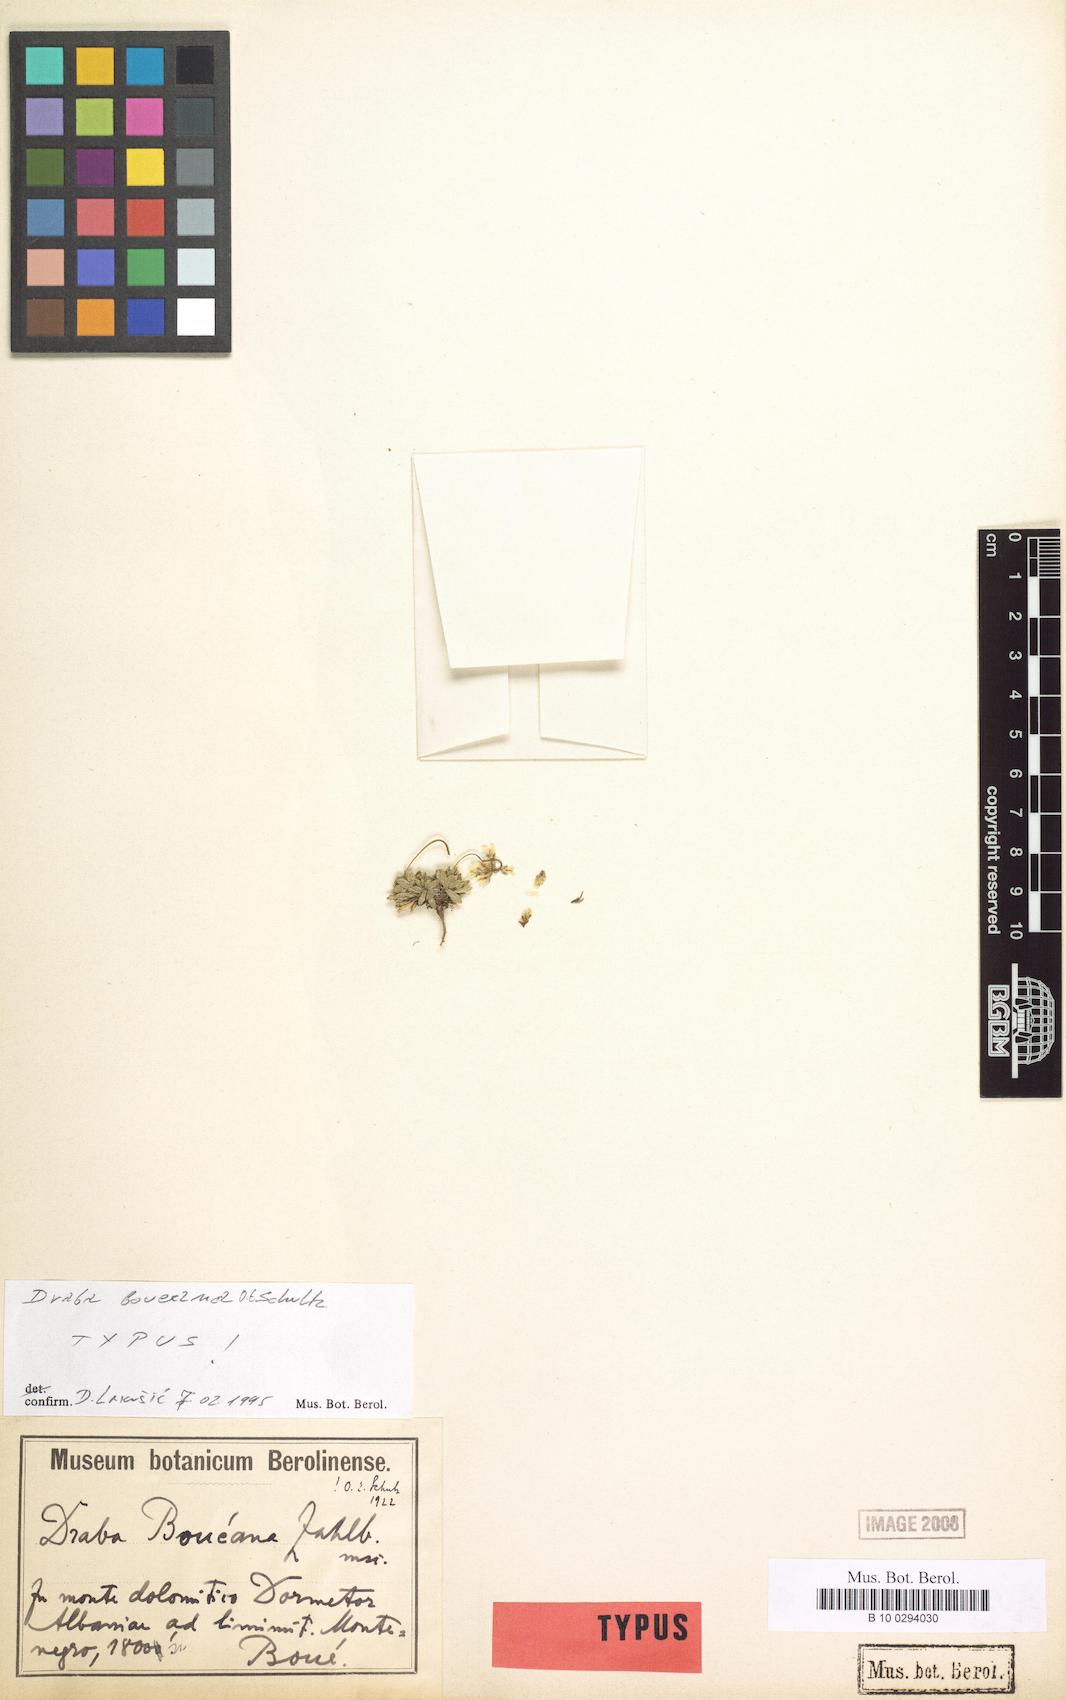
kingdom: Plantae
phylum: Tracheophyta
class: Magnoliopsida
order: Brassicales
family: Brassicaceae
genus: Draba
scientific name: Draba lasiocarpa
